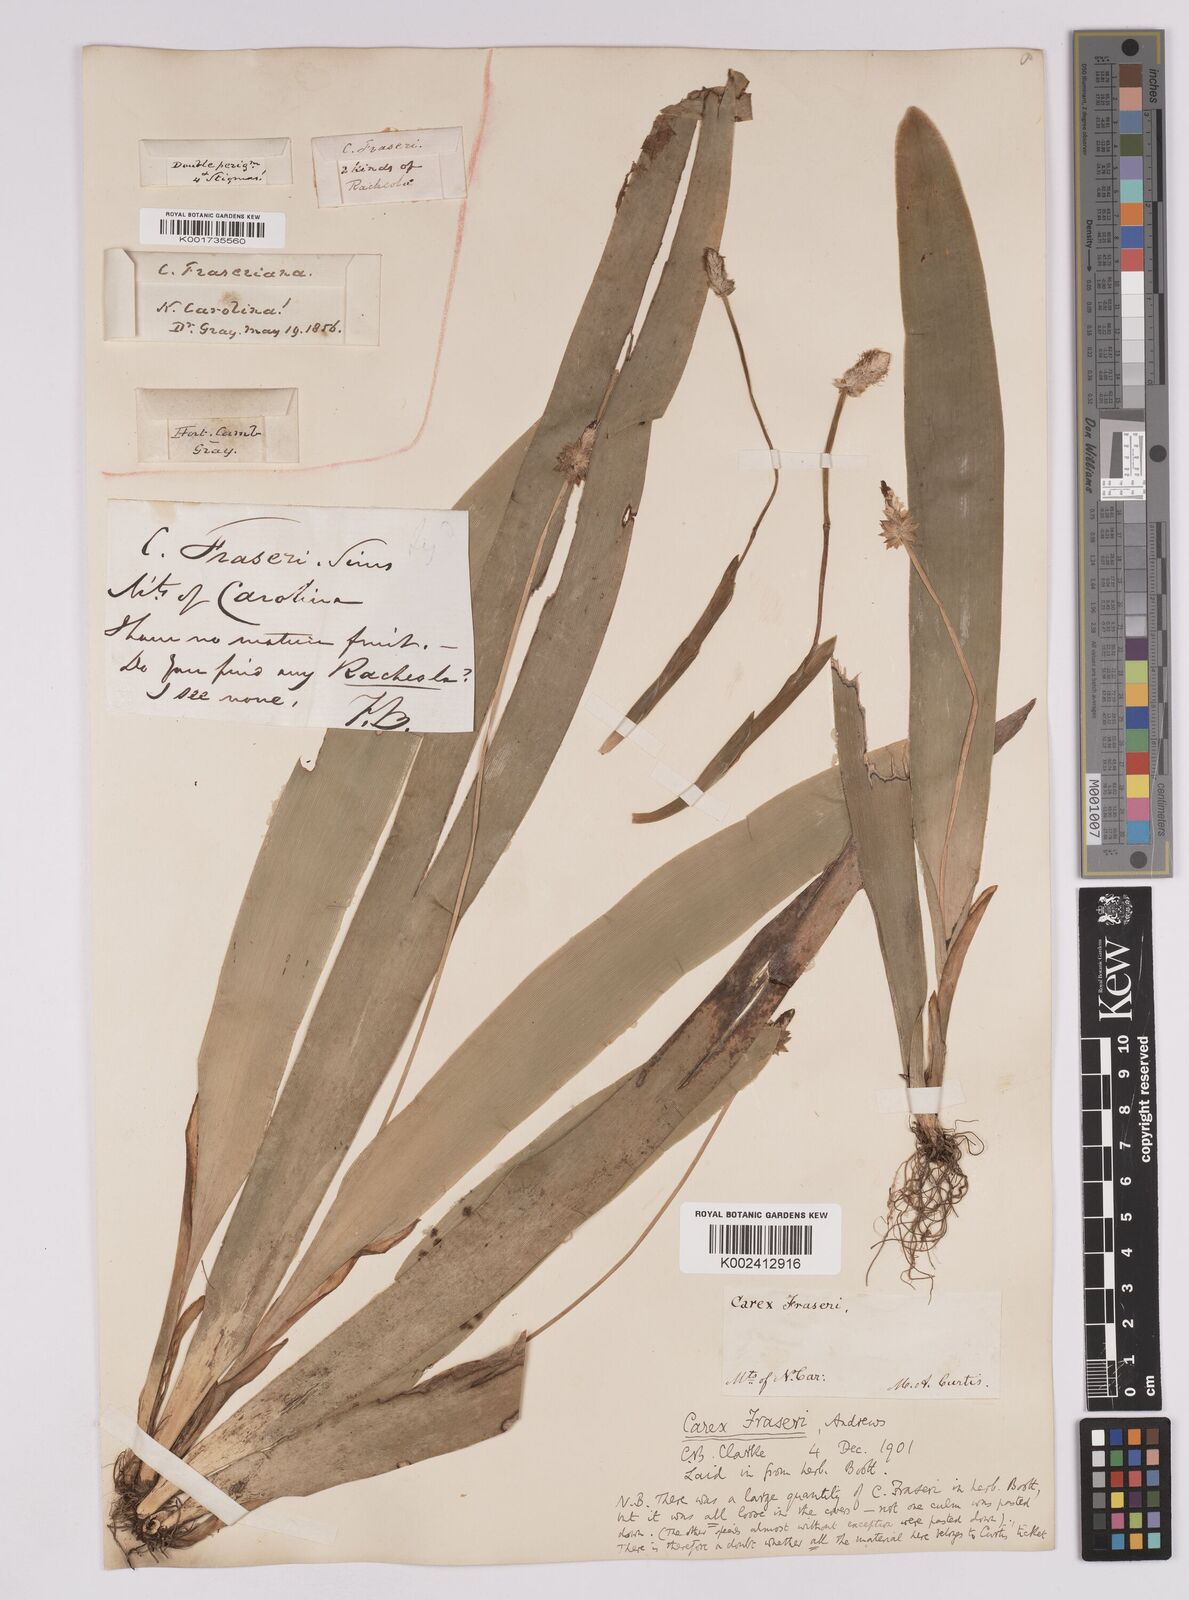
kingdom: Plantae
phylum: Tracheophyta
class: Liliopsida
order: Poales
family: Cyperaceae
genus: Carex
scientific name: Carex fraseriana
